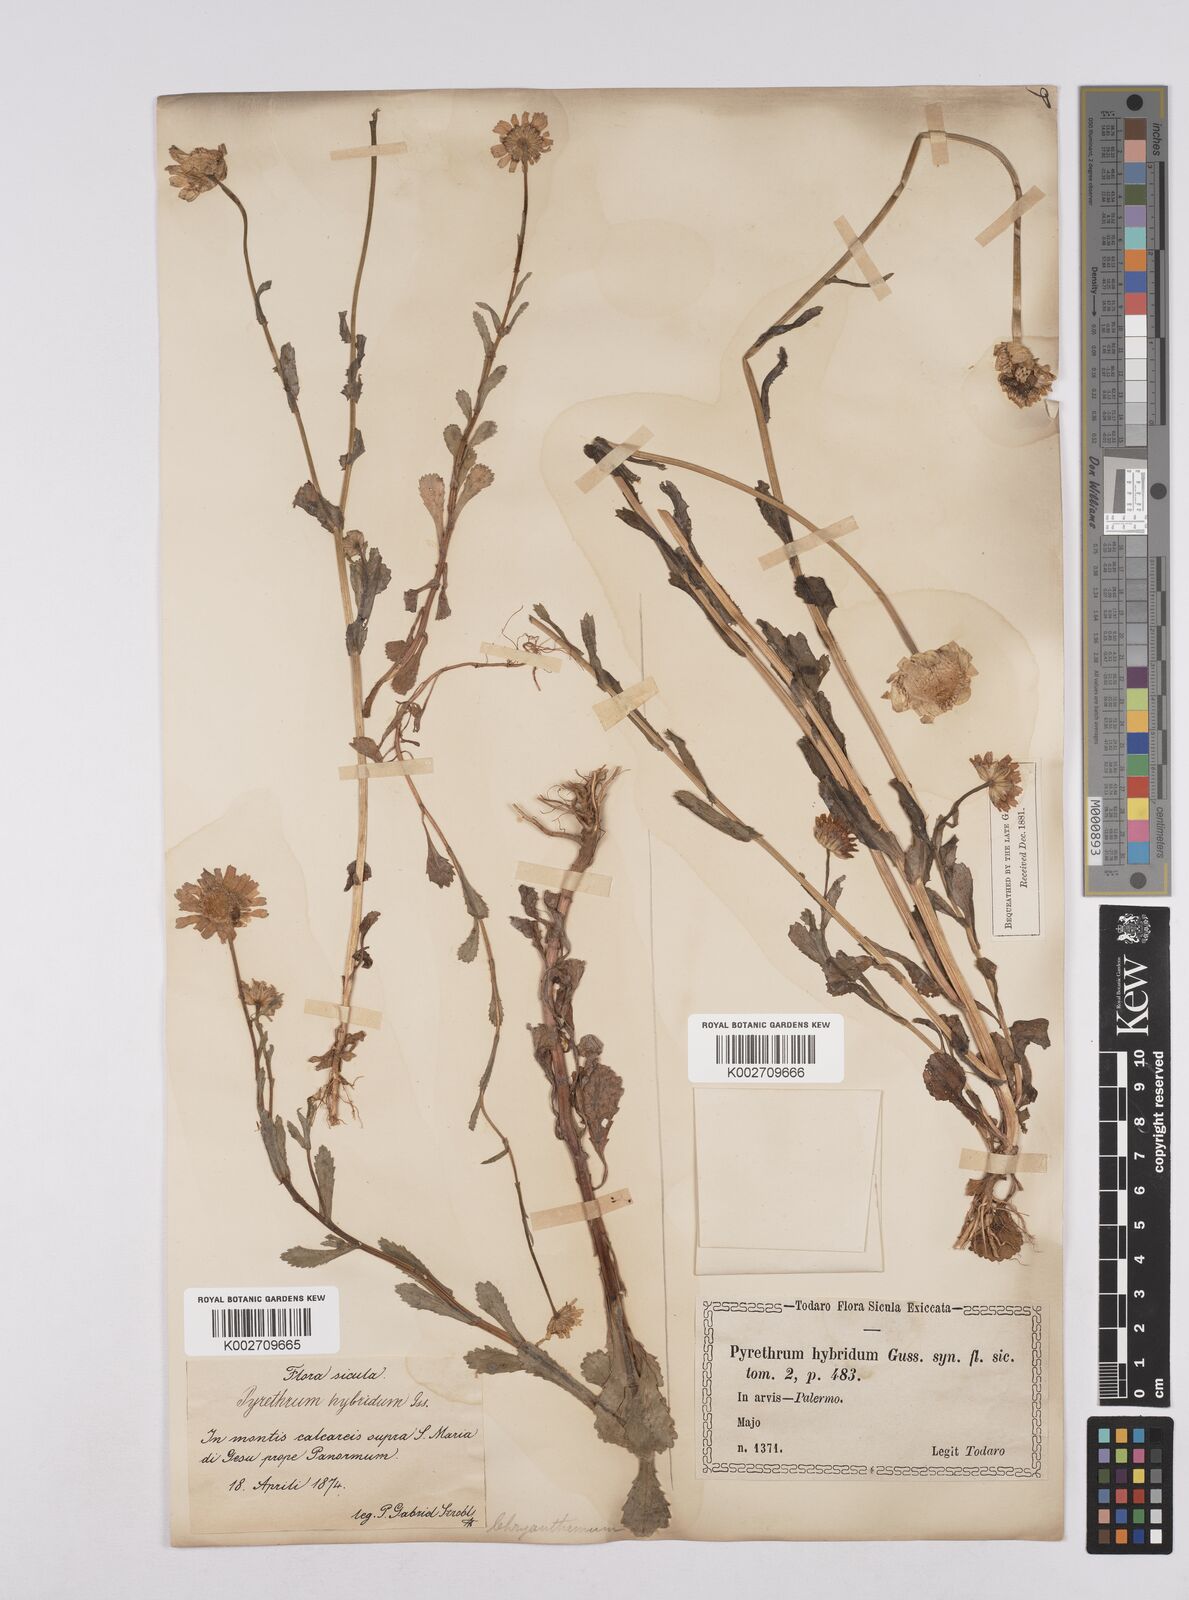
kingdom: Plantae
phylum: Tracheophyta
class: Magnoliopsida
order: Asterales
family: Asteraceae
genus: Coleostephus
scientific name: Coleostephus paludosus
